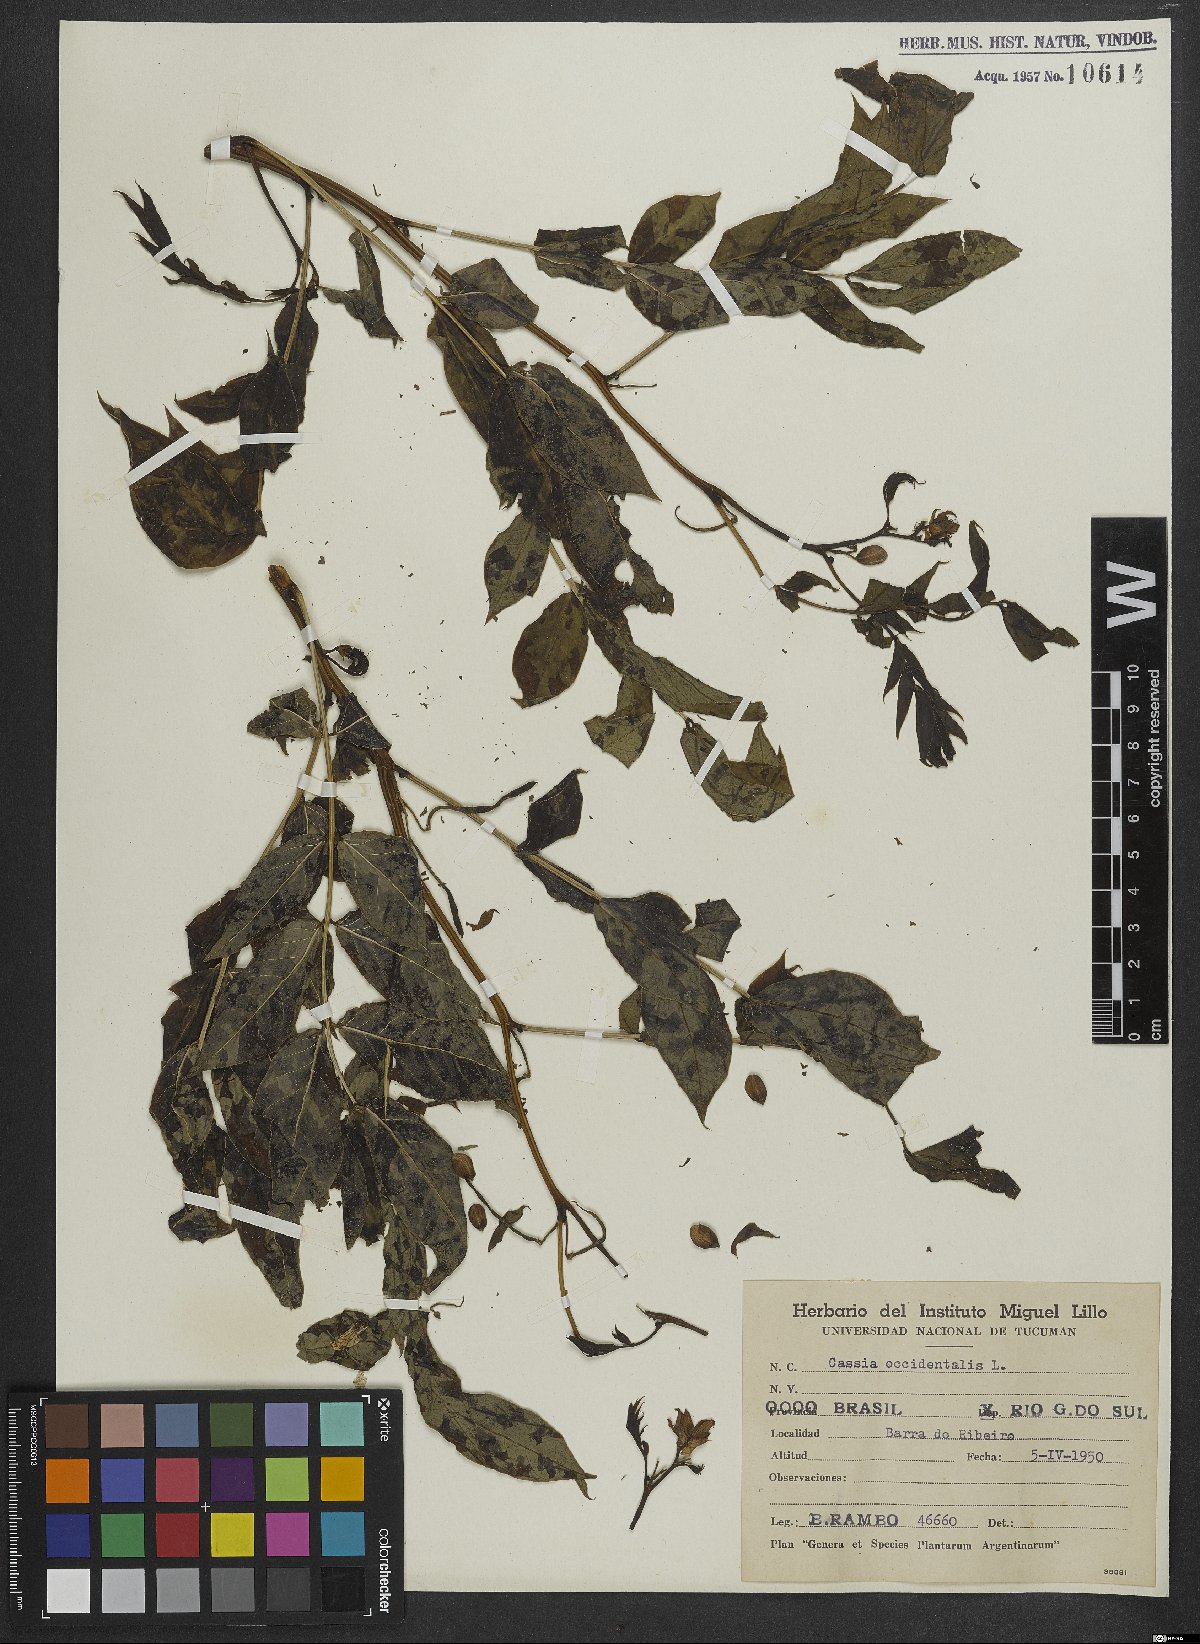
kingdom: Plantae
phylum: Tracheophyta
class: Magnoliopsida
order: Fabales
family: Fabaceae
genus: Senna
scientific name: Senna occidentalis
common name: Septicweed
